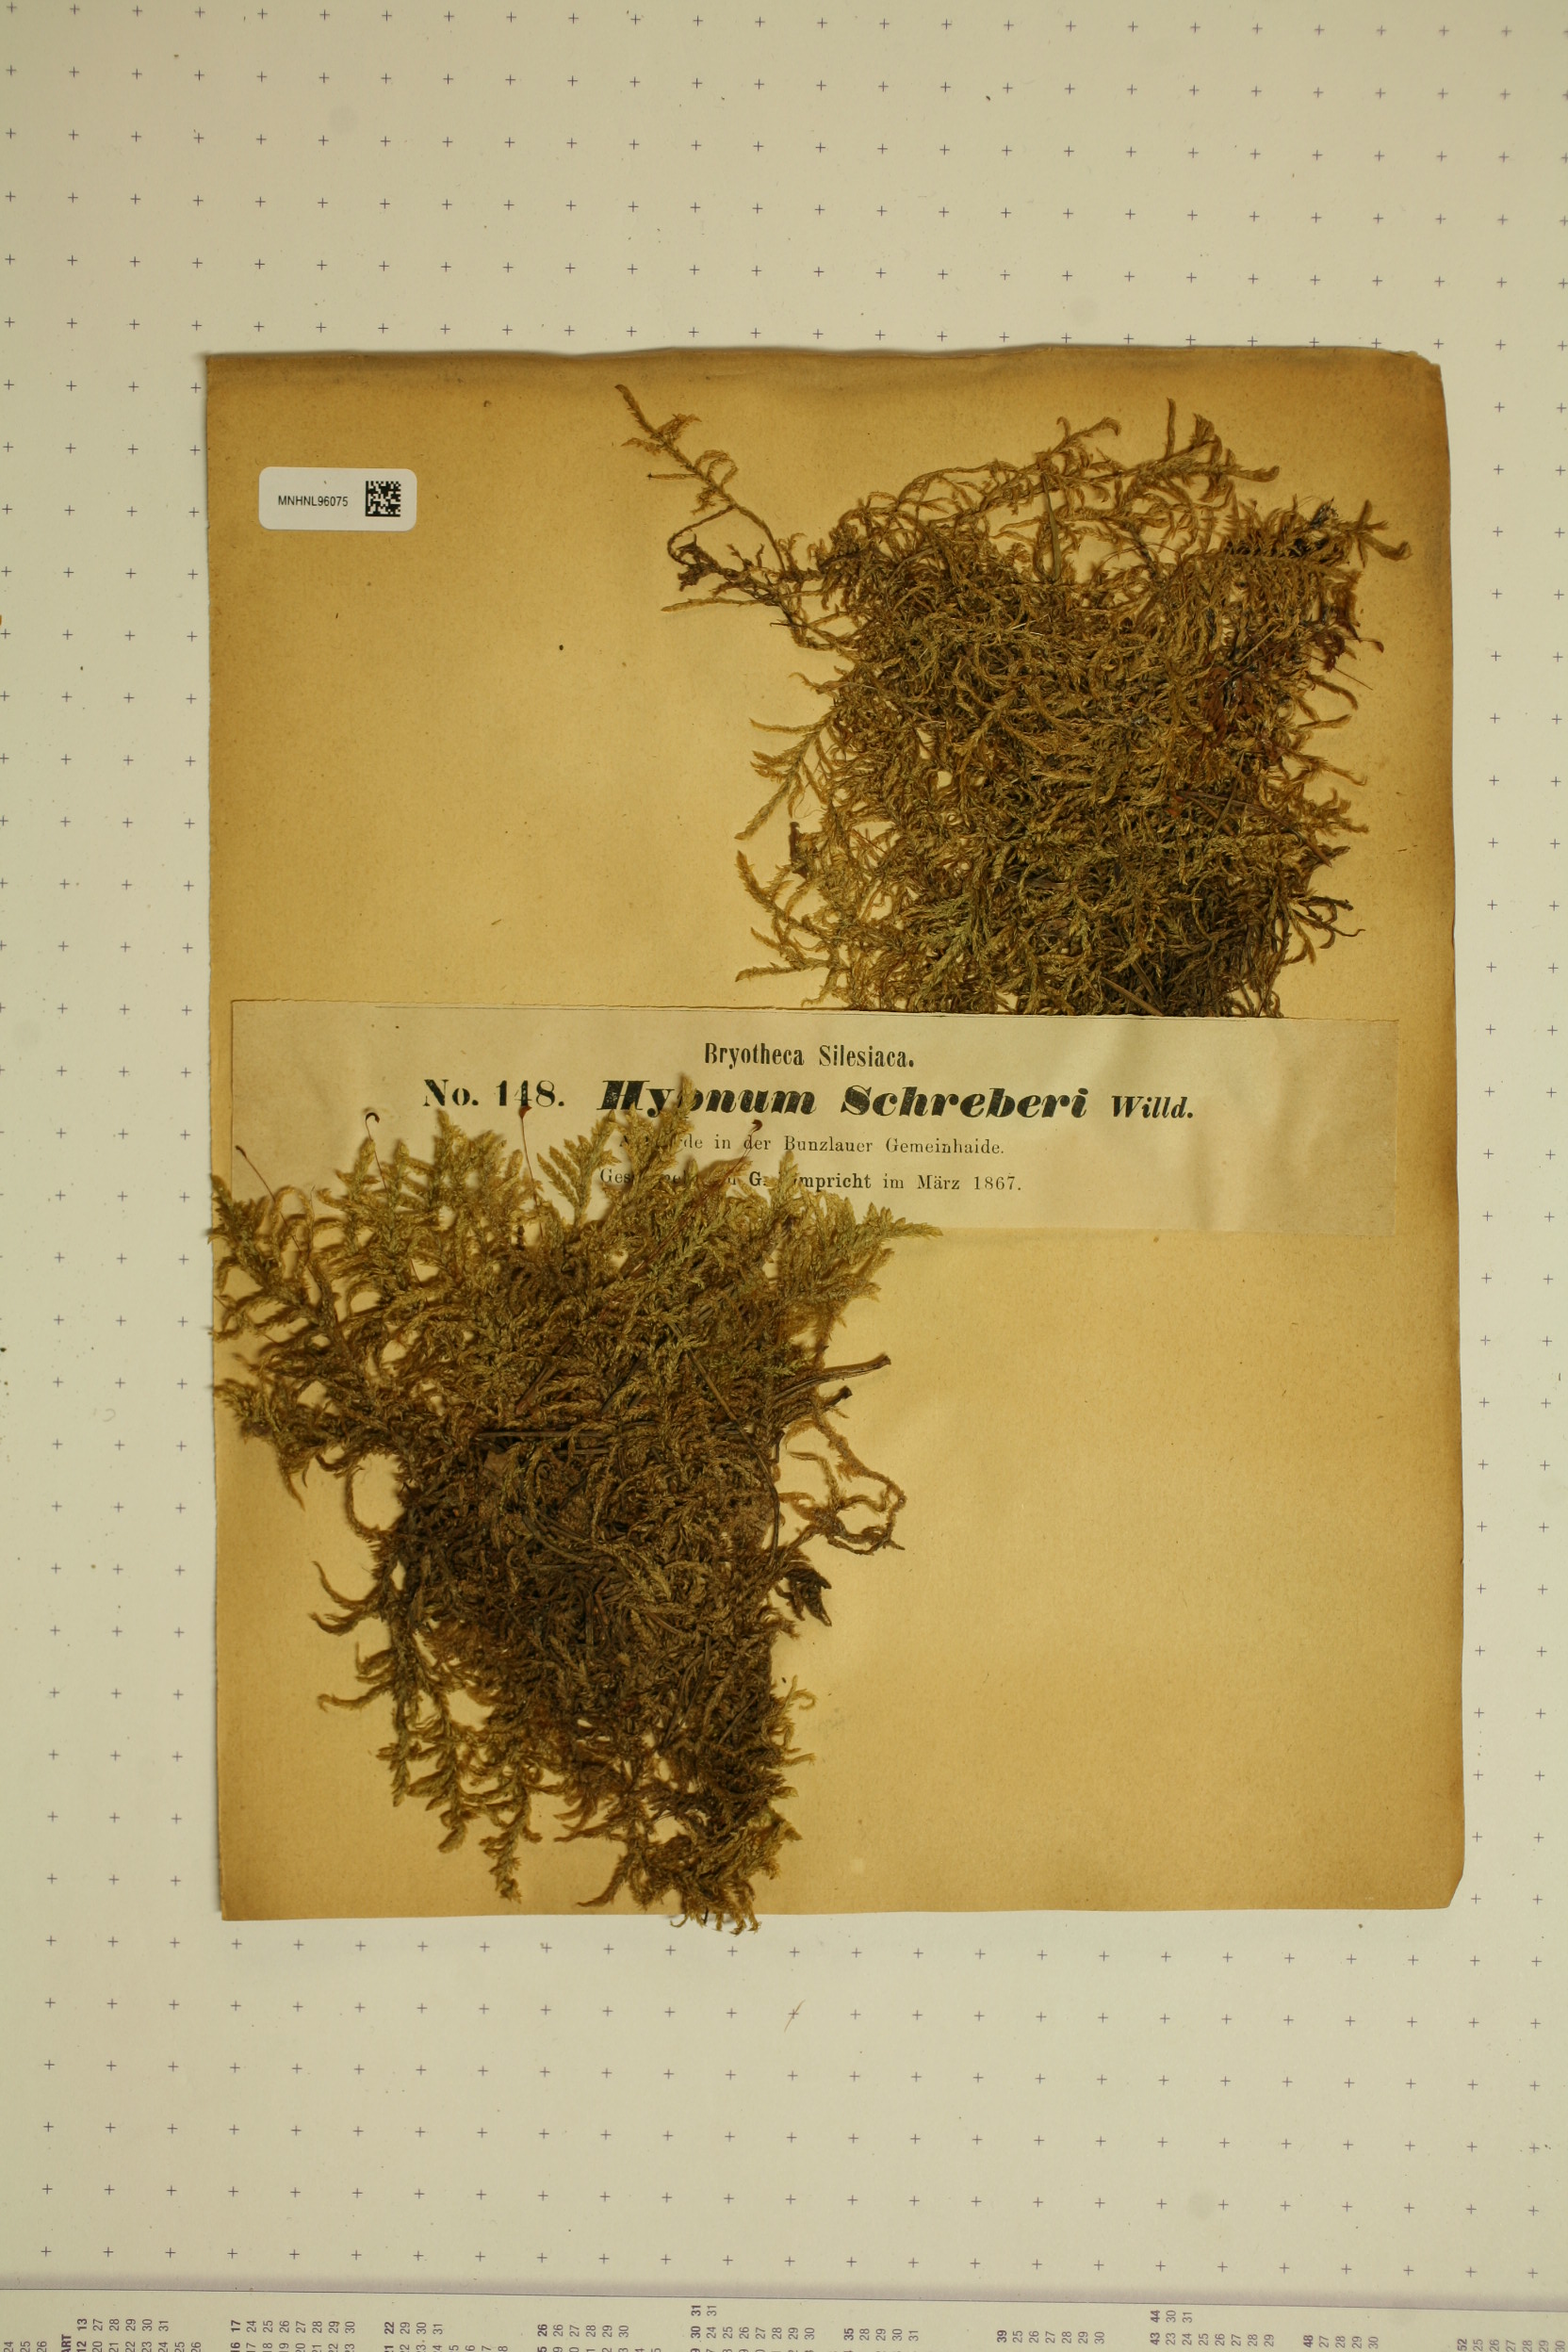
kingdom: Plantae
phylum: Bryophyta
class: Bryopsida
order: Hypnales
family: Hylocomiaceae
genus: Pleurozium
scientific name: Pleurozium schreberi
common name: Red-stemmed feather moss
